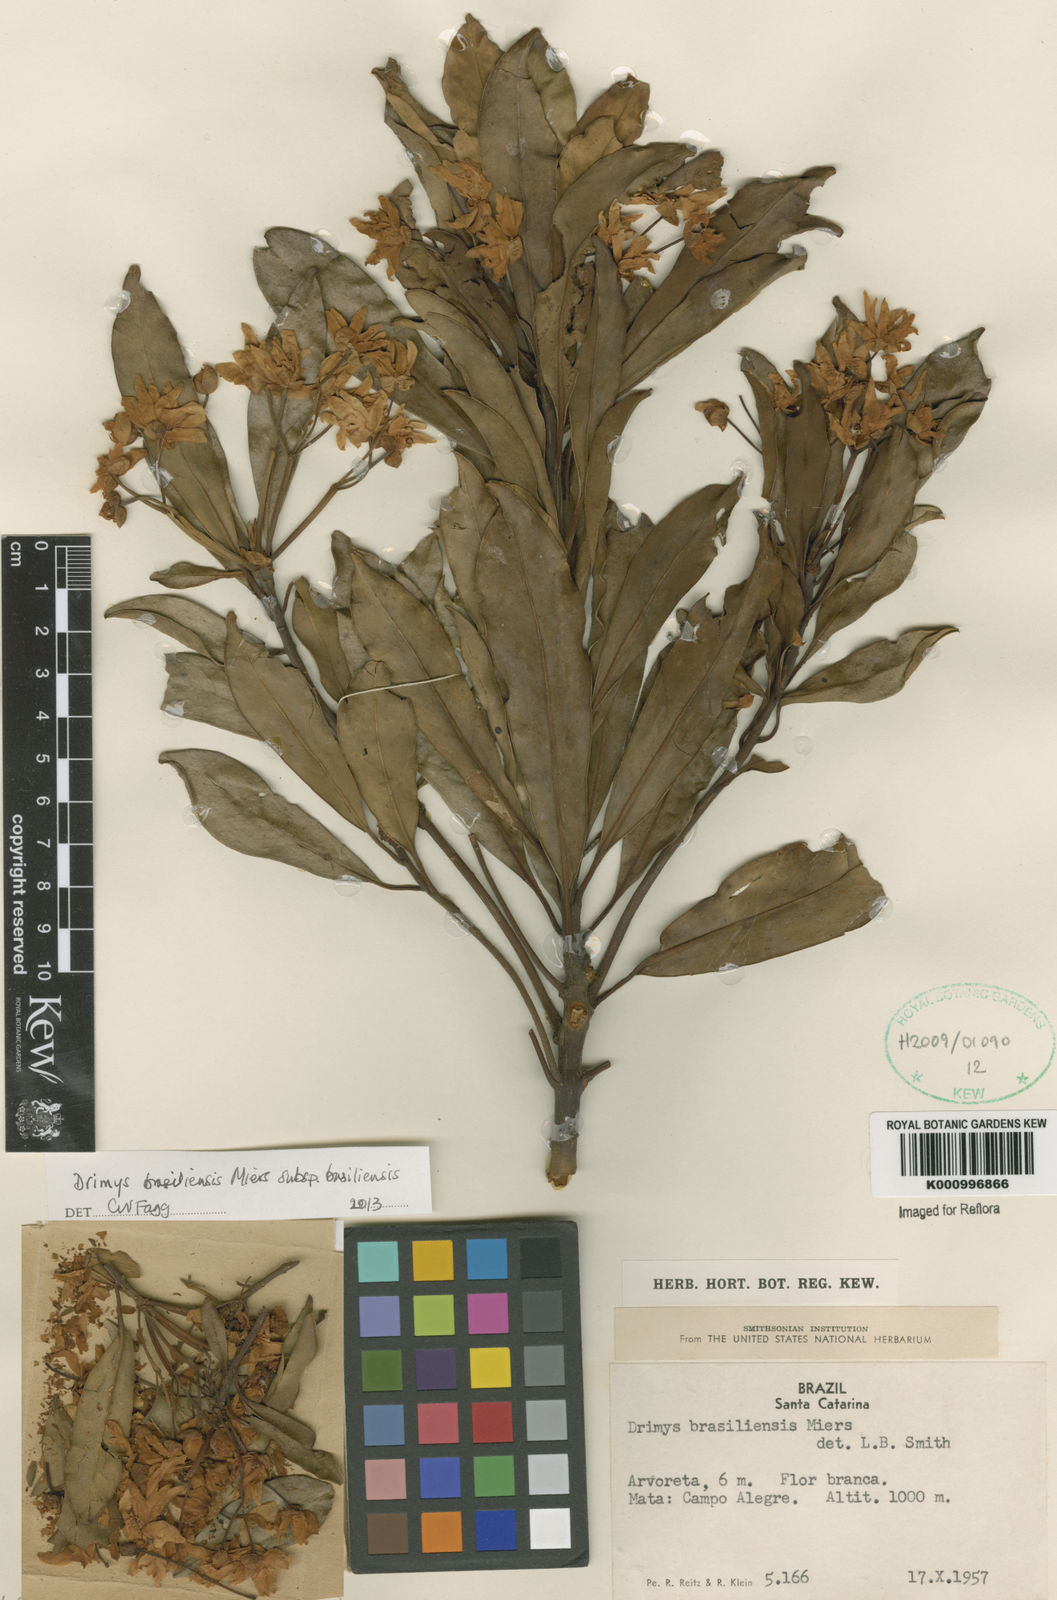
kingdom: Plantae
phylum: Tracheophyta
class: Magnoliopsida
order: Canellales
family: Winteraceae
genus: Drimys
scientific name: Drimys brasiliensis
